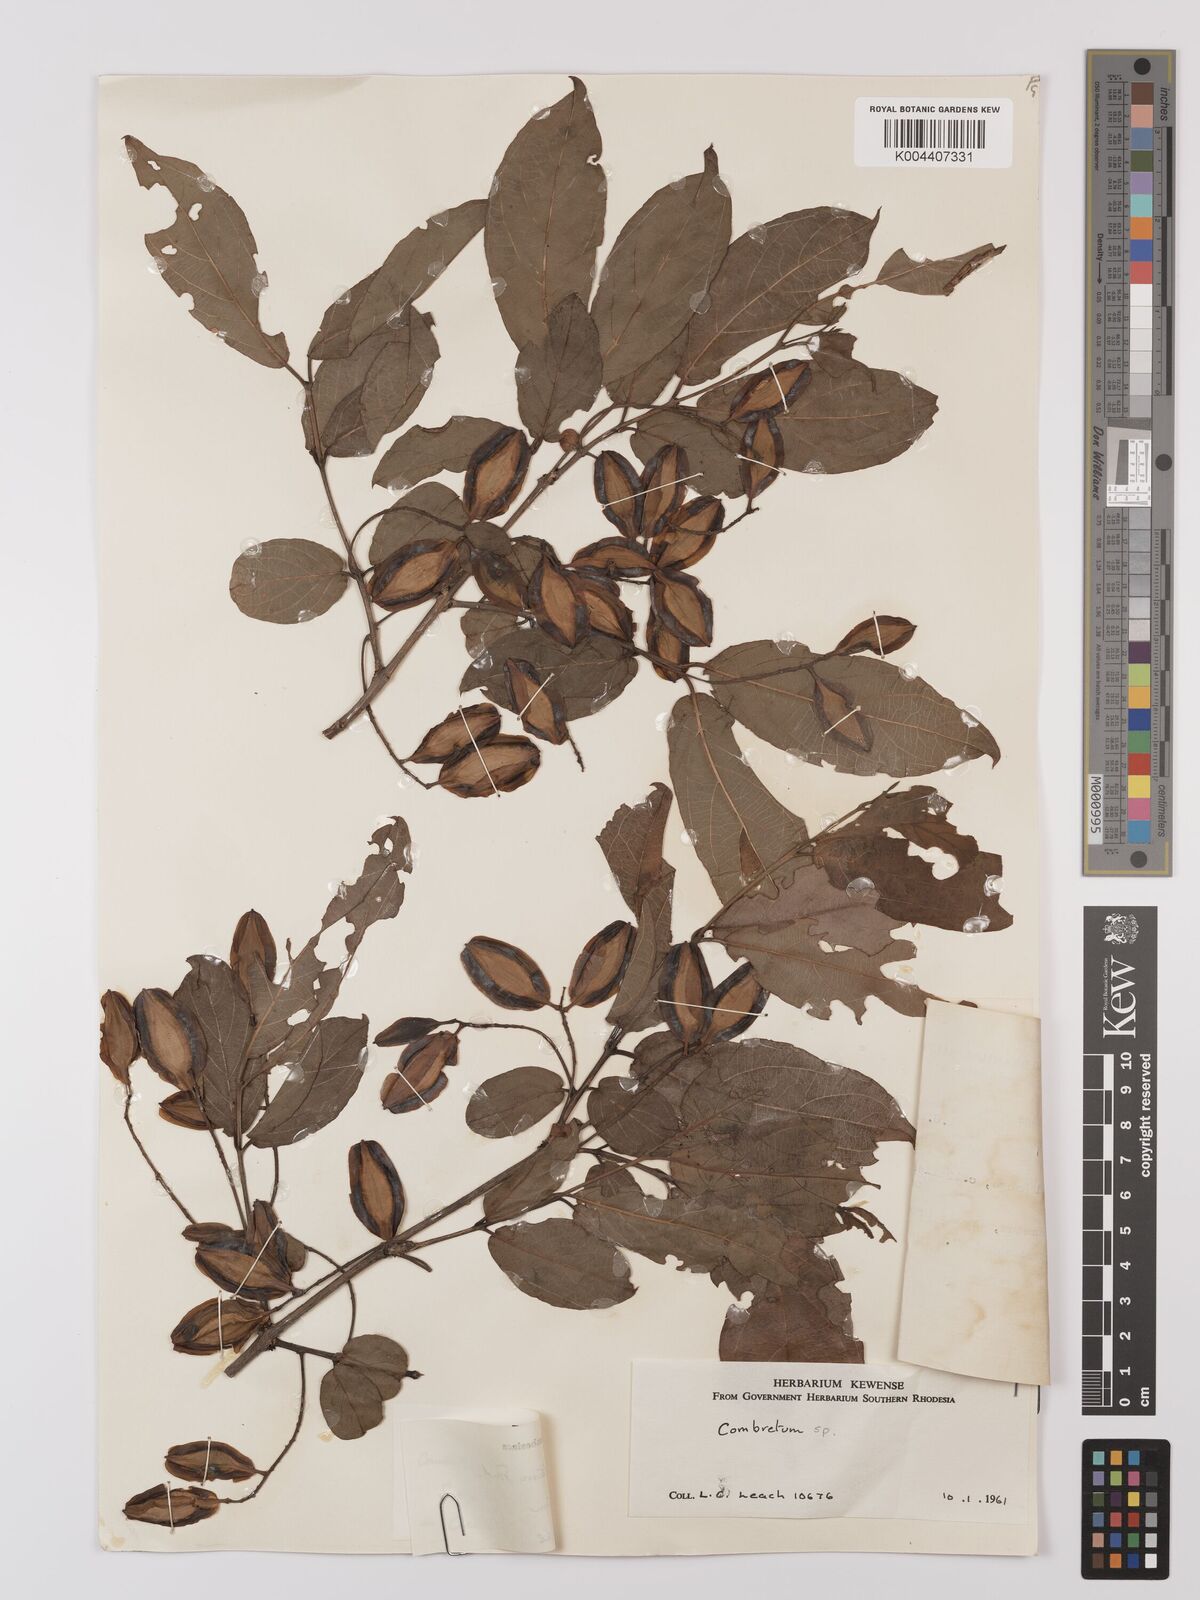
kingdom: Plantae
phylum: Tracheophyta
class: Magnoliopsida
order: Myrtales
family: Combretaceae
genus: Combretum
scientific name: Combretum apiculatum
